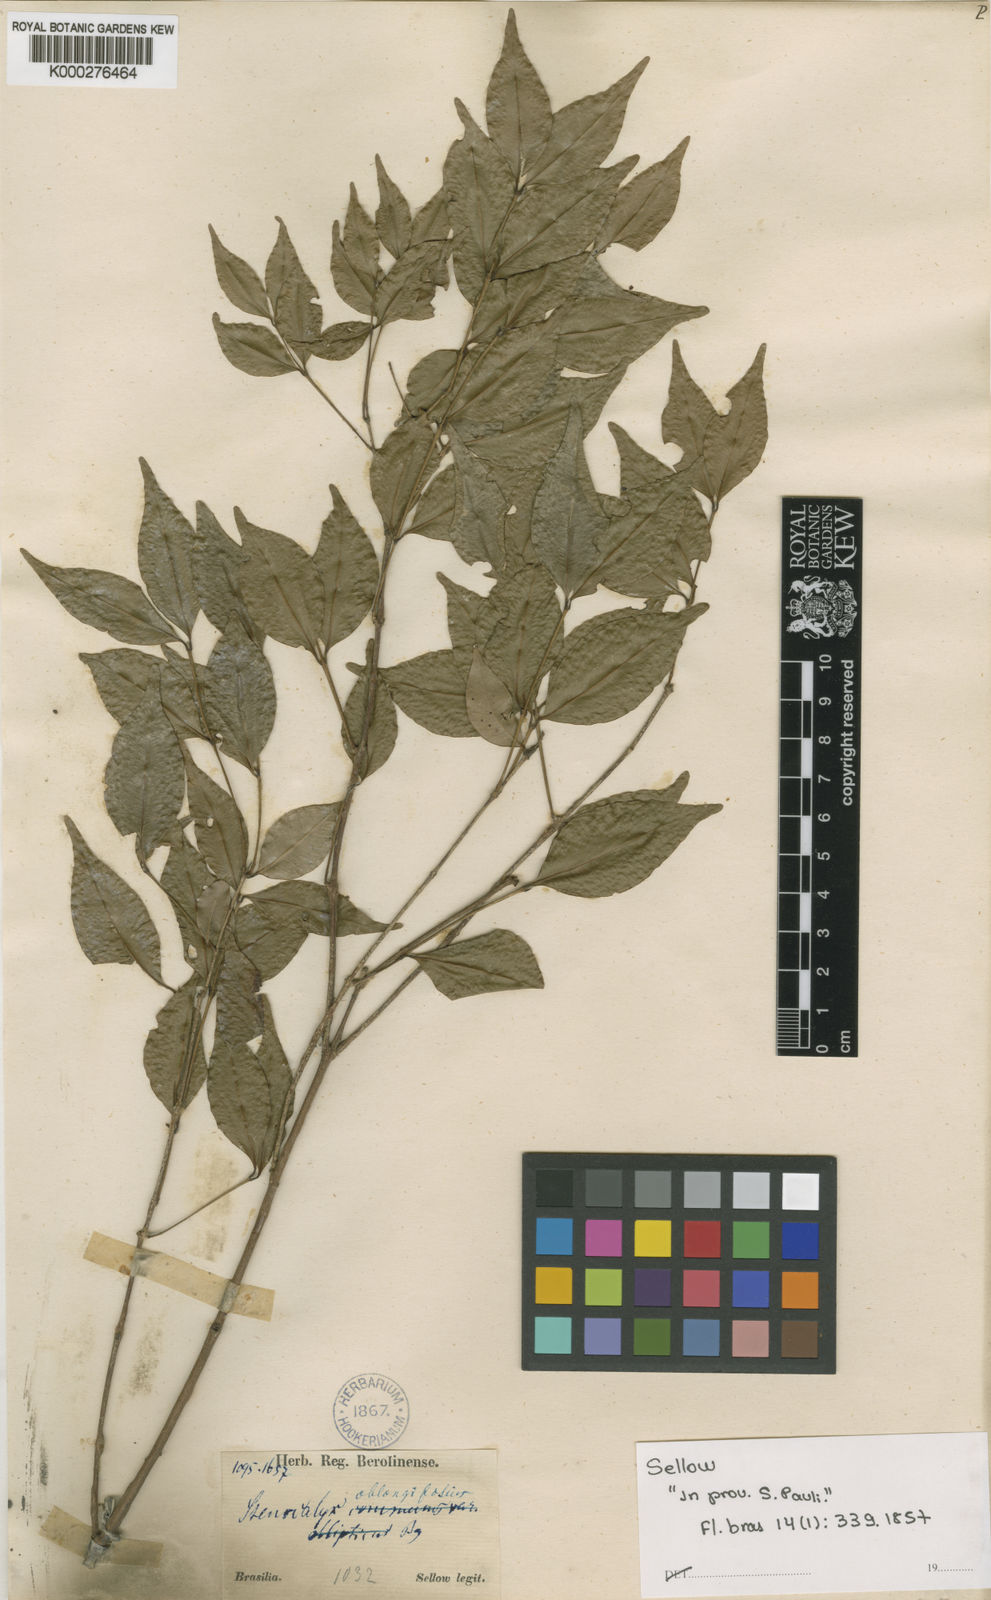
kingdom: Plantae
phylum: Tracheophyta
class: Magnoliopsida
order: Myrtales
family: Myrtaceae
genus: Eugenia
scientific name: Eugenia
